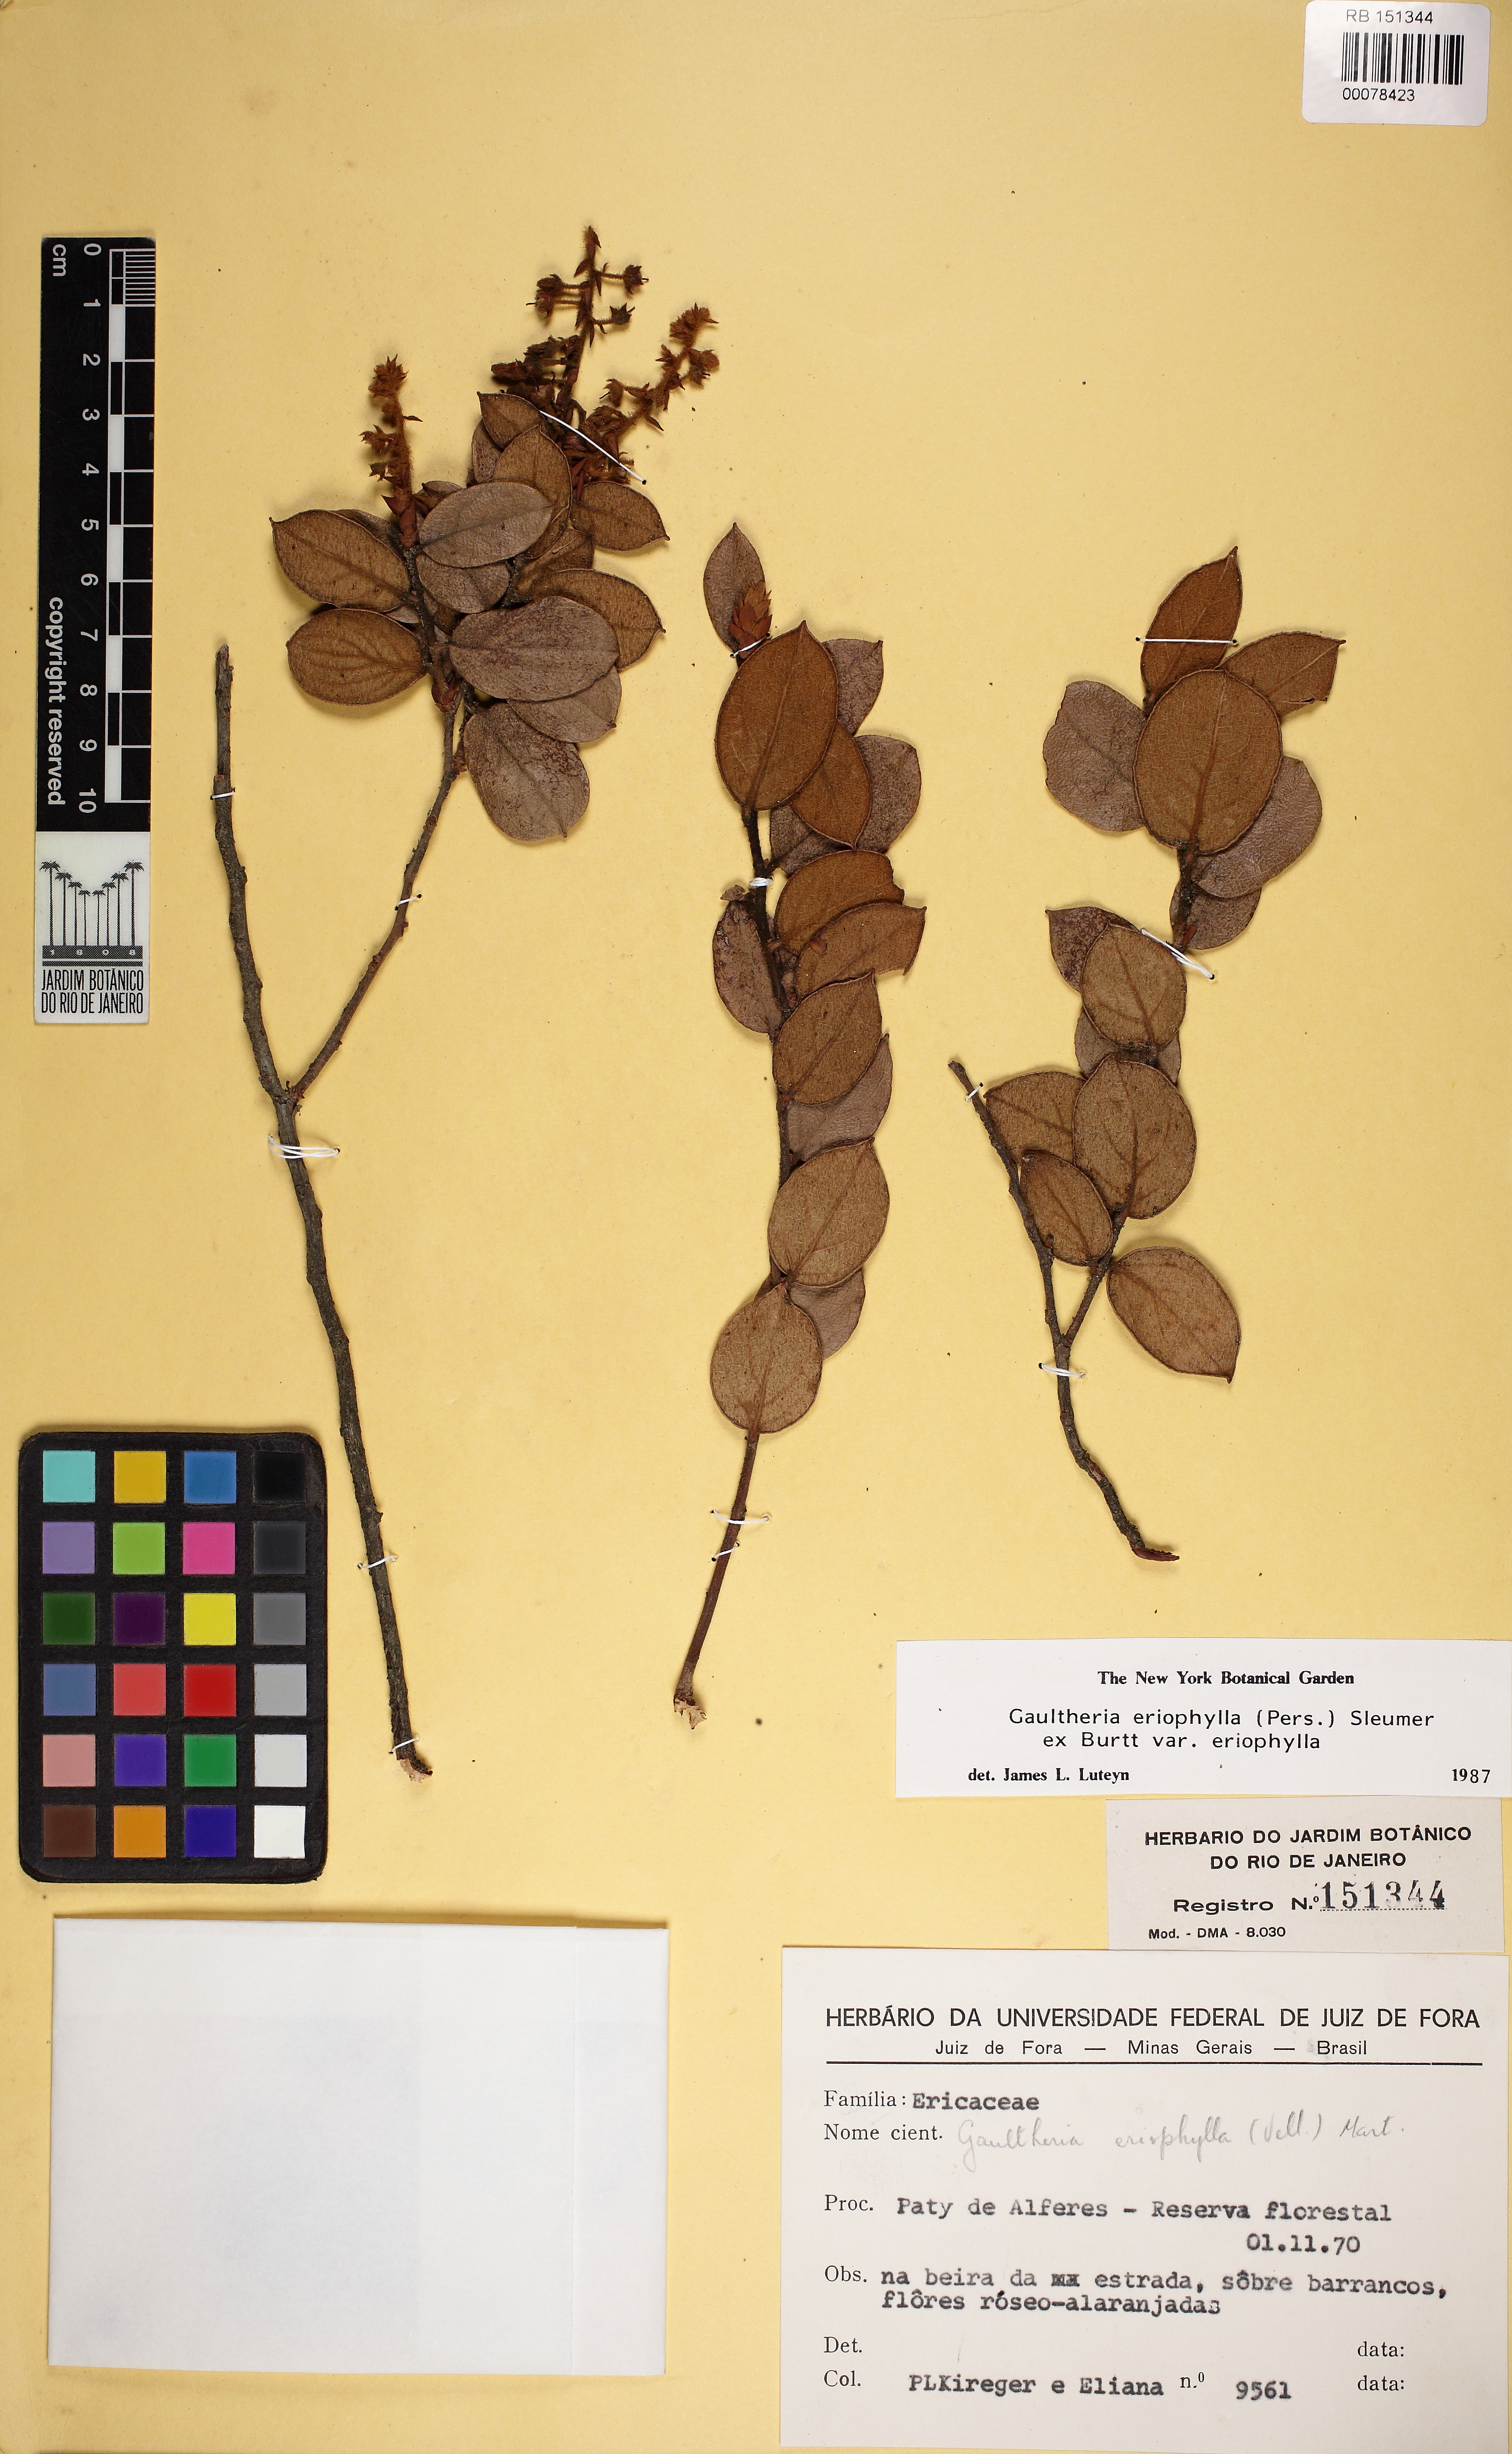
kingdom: Plantae
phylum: Tracheophyta
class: Magnoliopsida
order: Ericales
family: Ericaceae
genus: Gaultheria
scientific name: Gaultheria eriophylla
